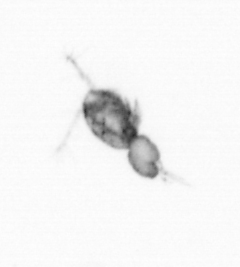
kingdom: Animalia
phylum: Arthropoda
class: Copepoda
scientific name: Copepoda
